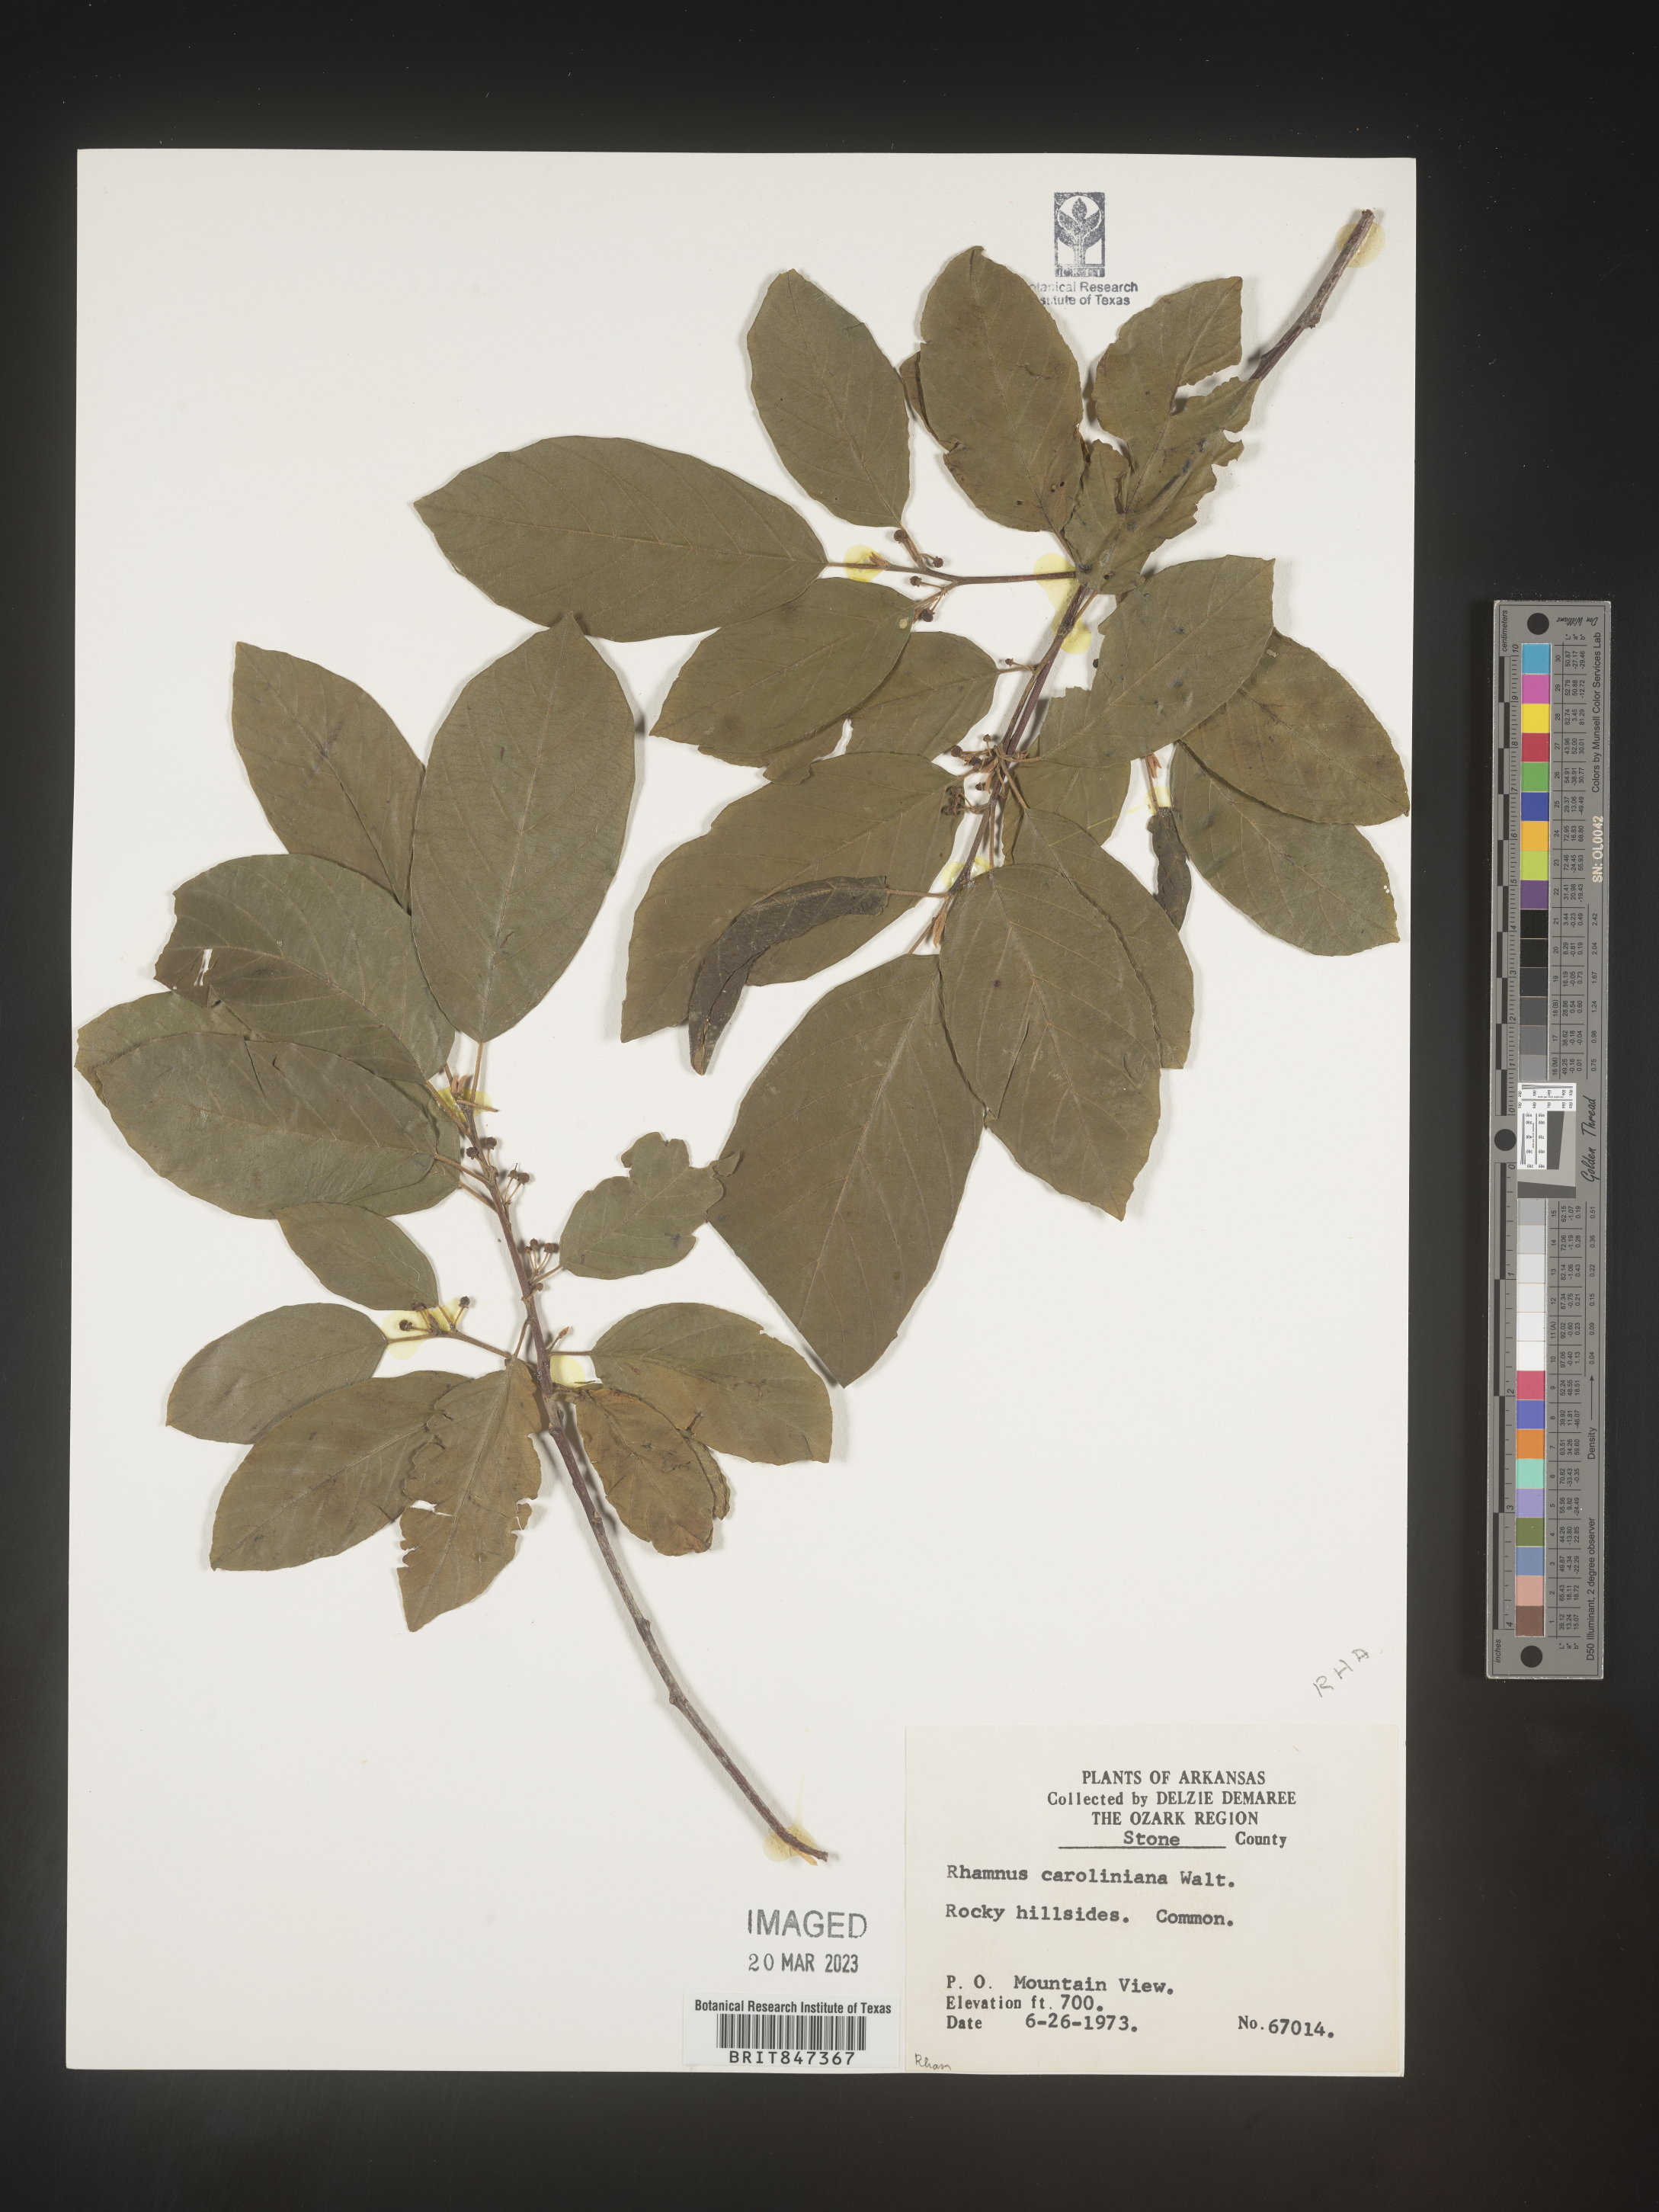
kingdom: Plantae
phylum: Tracheophyta
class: Magnoliopsida
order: Rosales
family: Rhamnaceae
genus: Frangula
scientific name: Frangula caroliniana
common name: Carolina buckthorn
